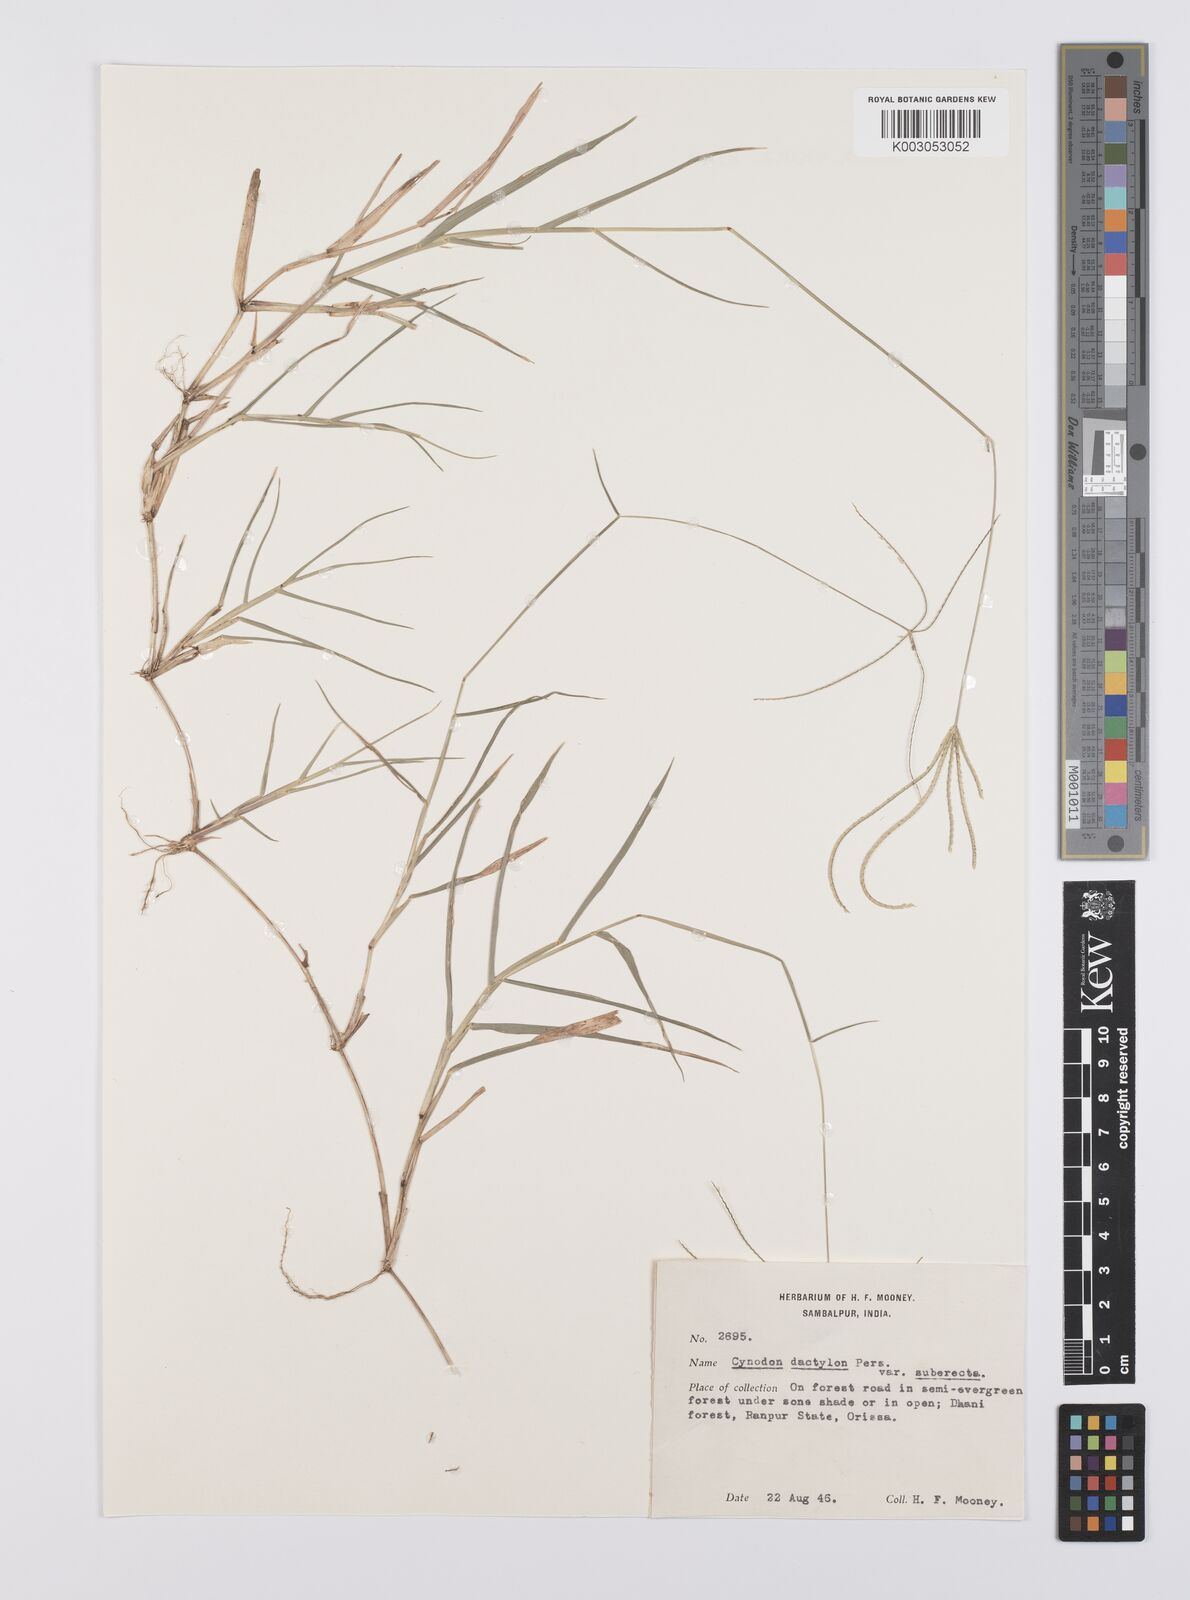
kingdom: Plantae
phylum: Tracheophyta
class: Liliopsida
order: Poales
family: Poaceae
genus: Cynodon
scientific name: Cynodon radiatus
